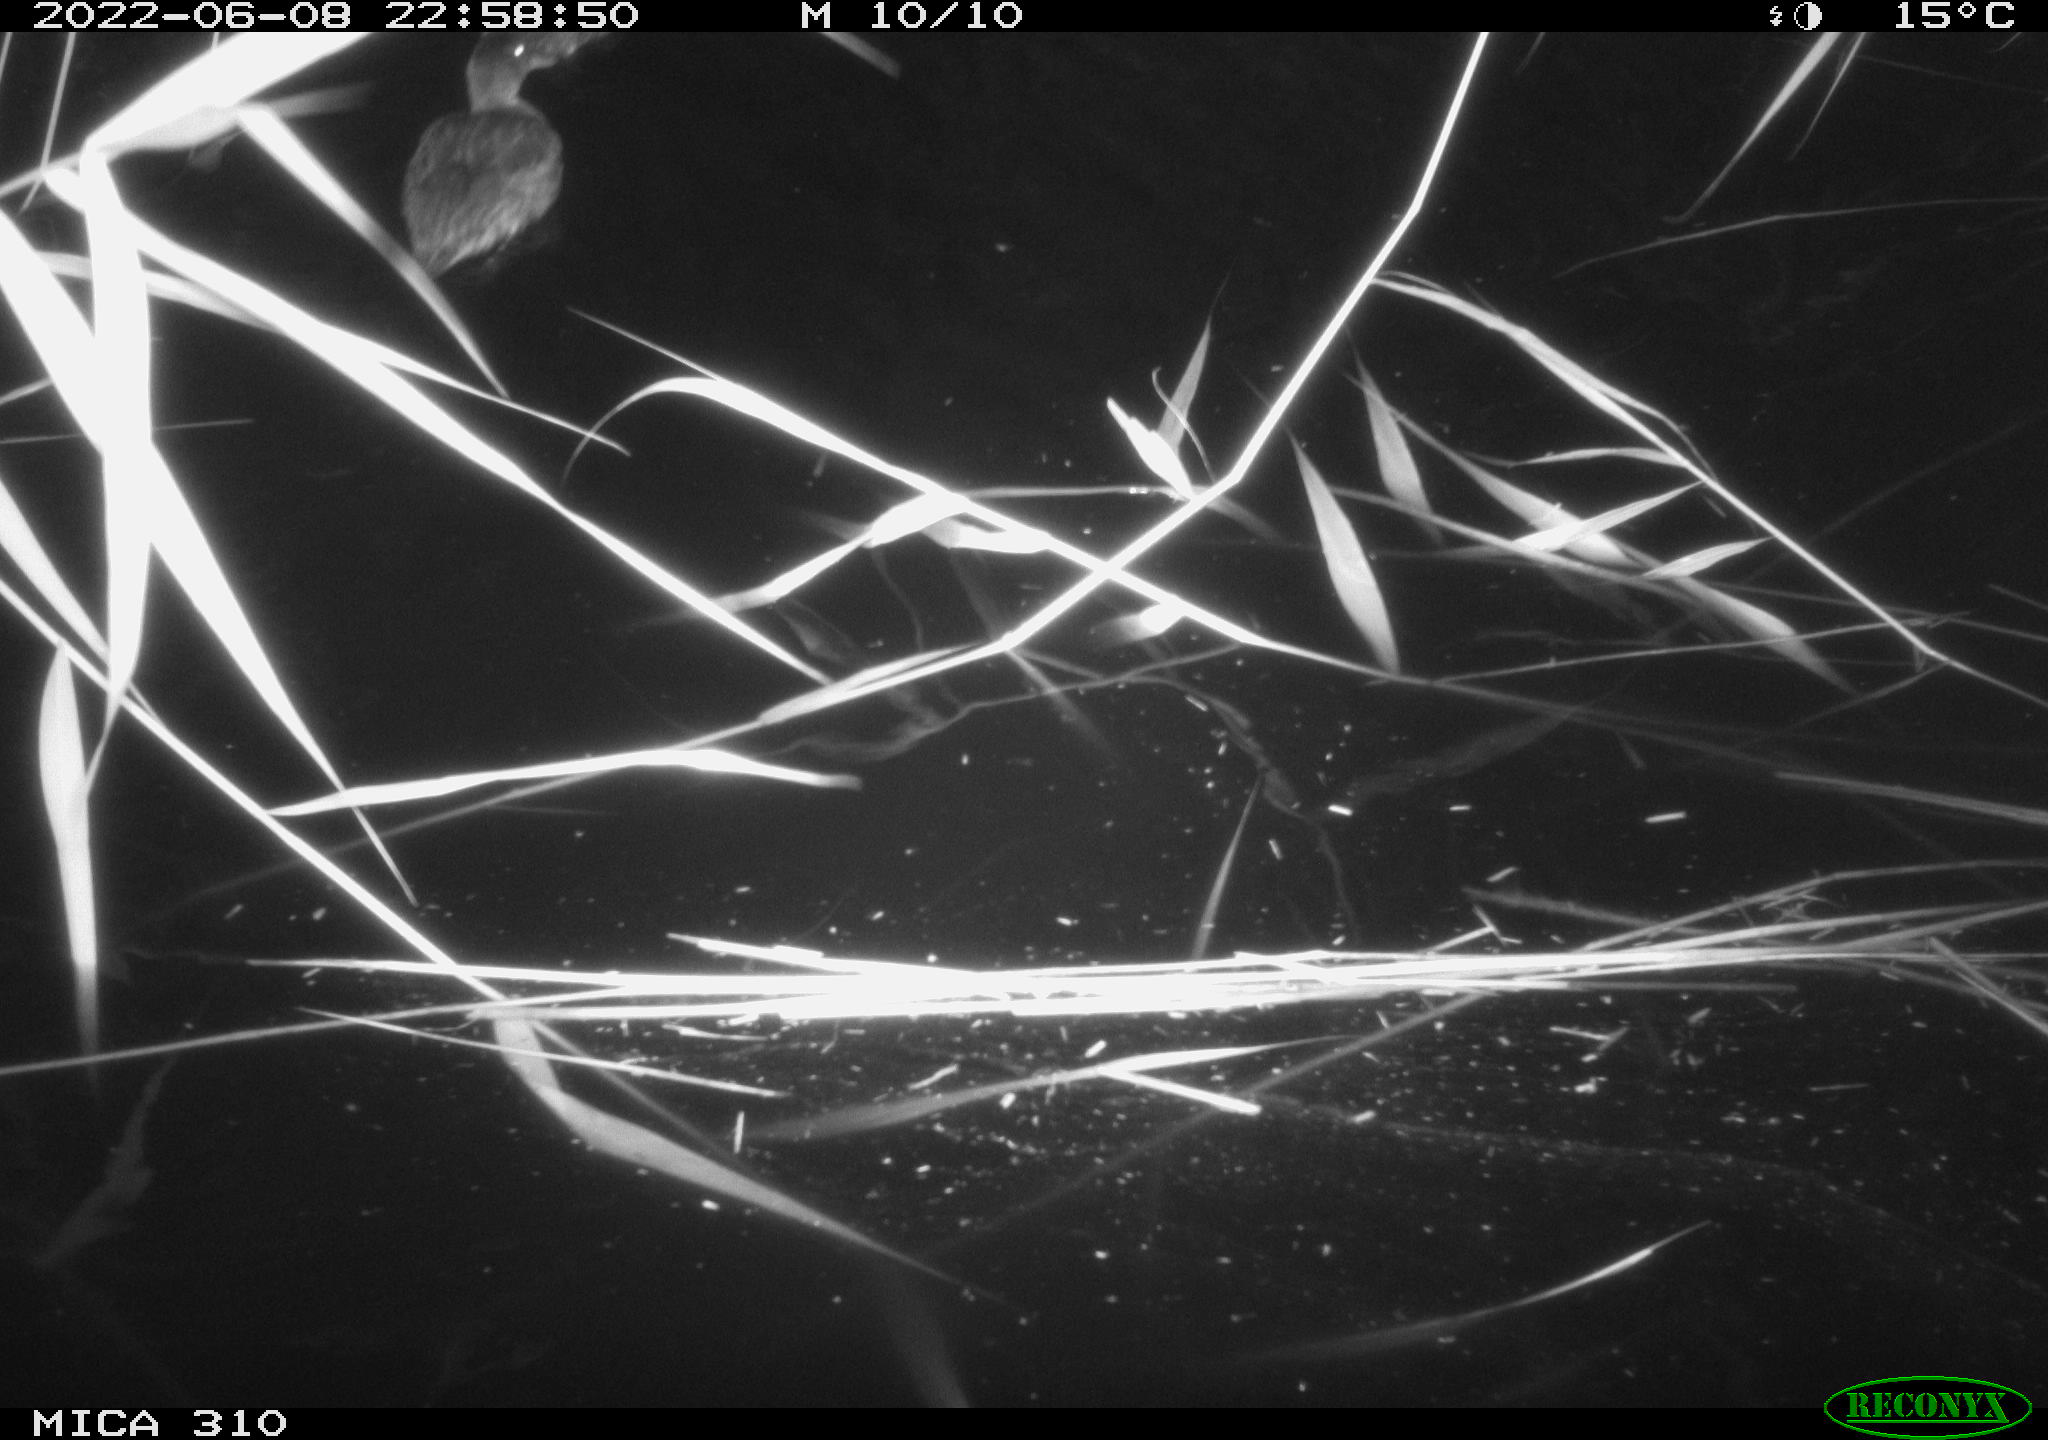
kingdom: Animalia
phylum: Chordata
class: Aves
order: Anseriformes
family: Anatidae
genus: Anas
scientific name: Anas platyrhynchos
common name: Mallard
